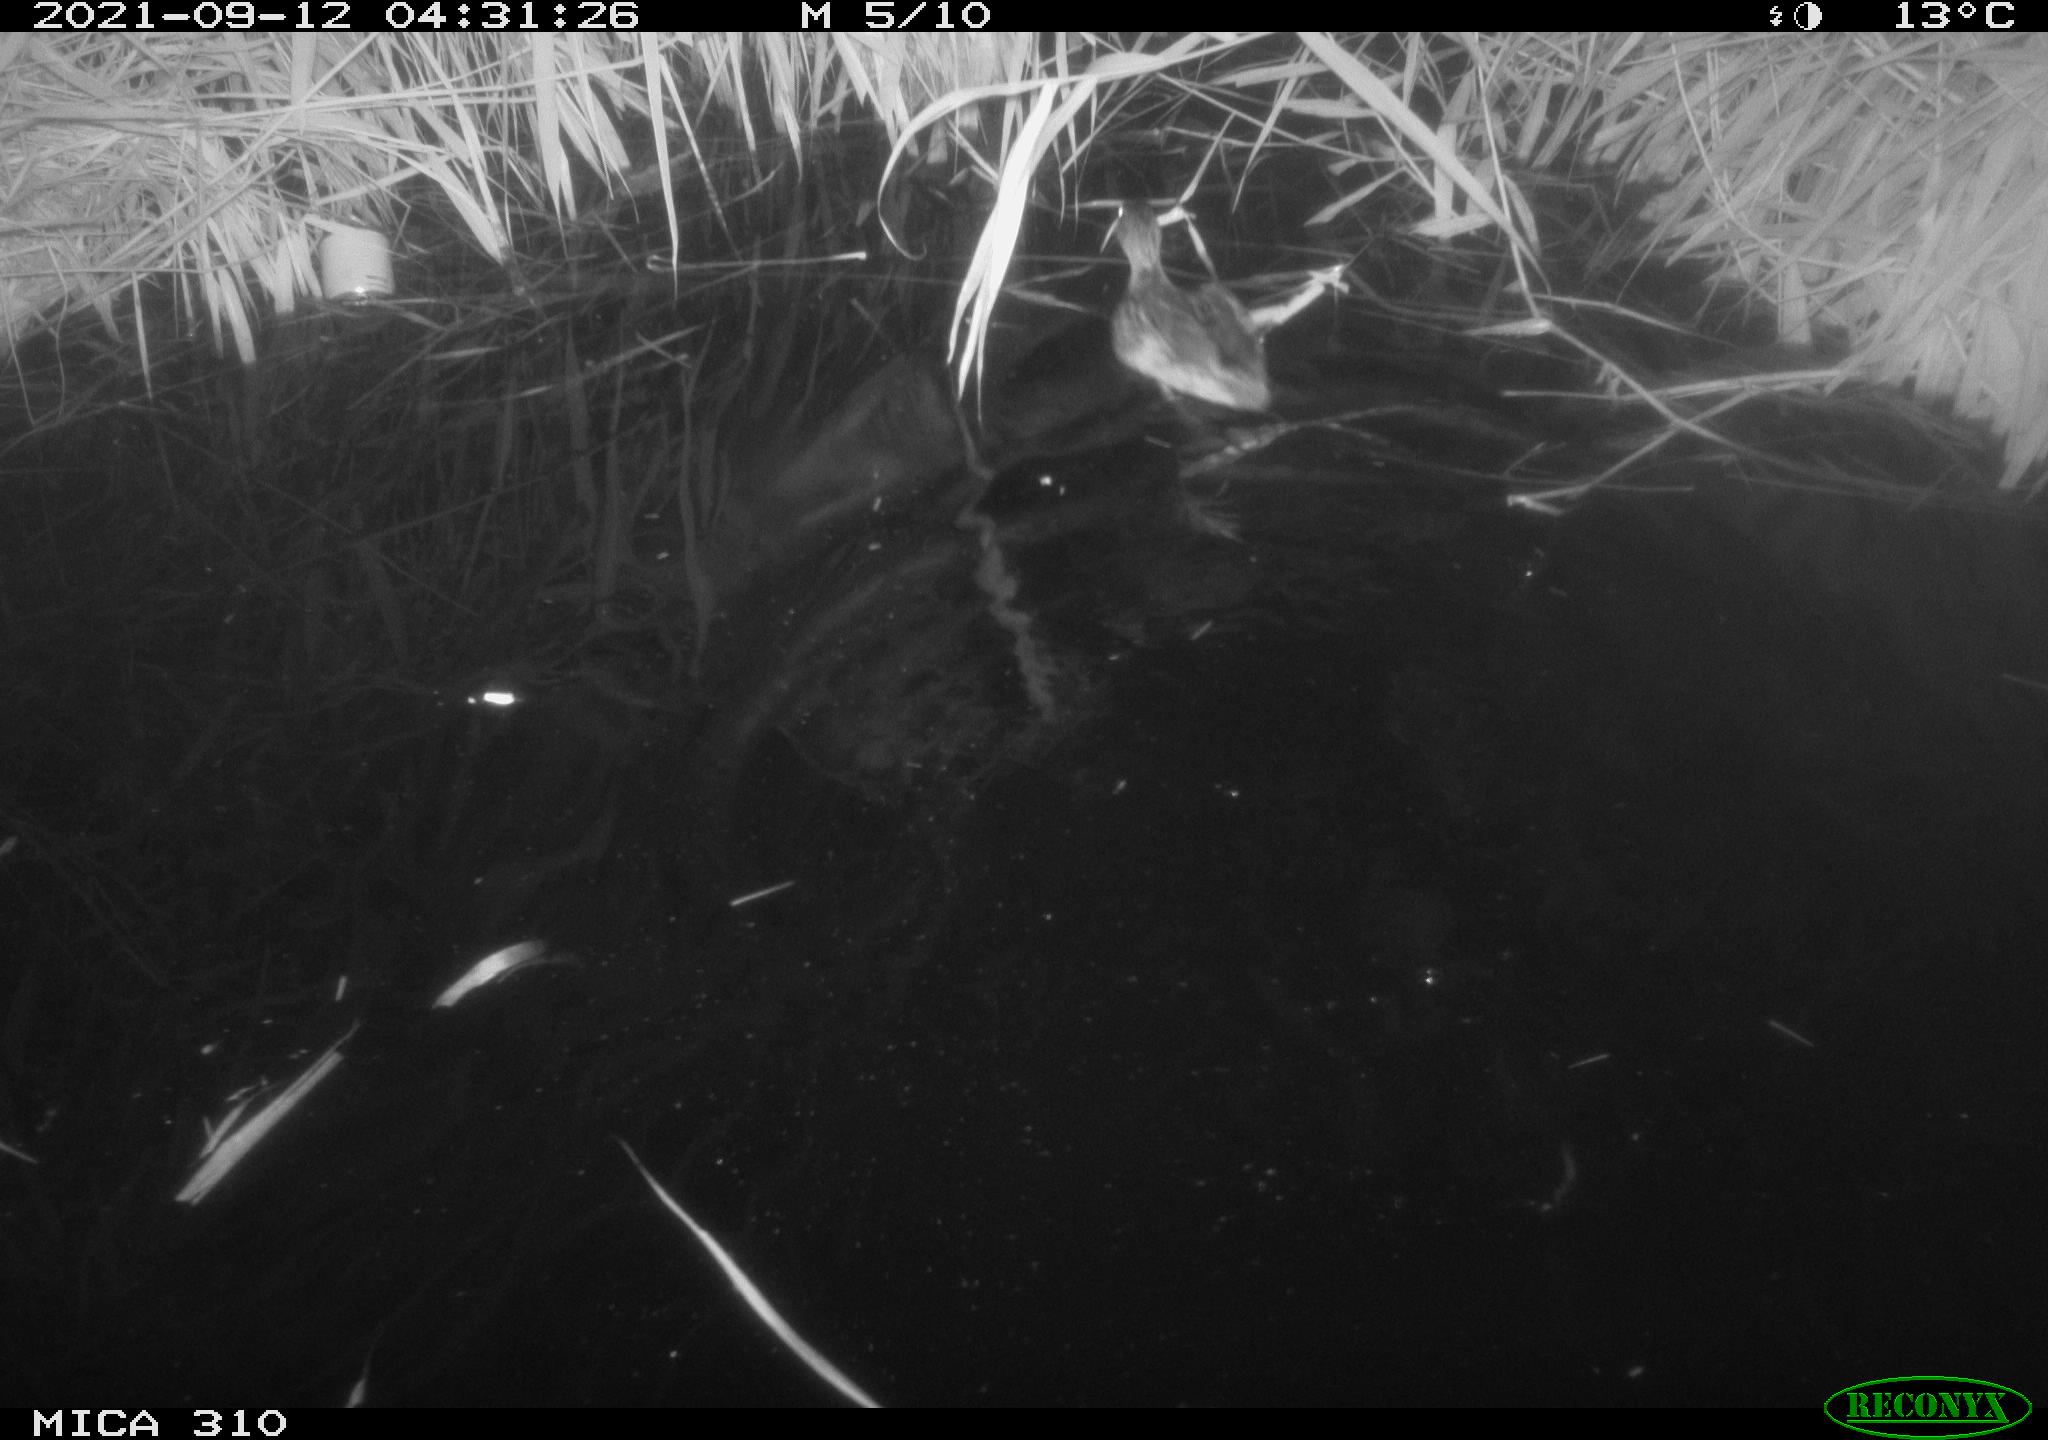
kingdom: Animalia
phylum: Chordata
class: Aves
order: Anseriformes
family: Anatidae
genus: Mareca
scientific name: Mareca strepera
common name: Gadwall
